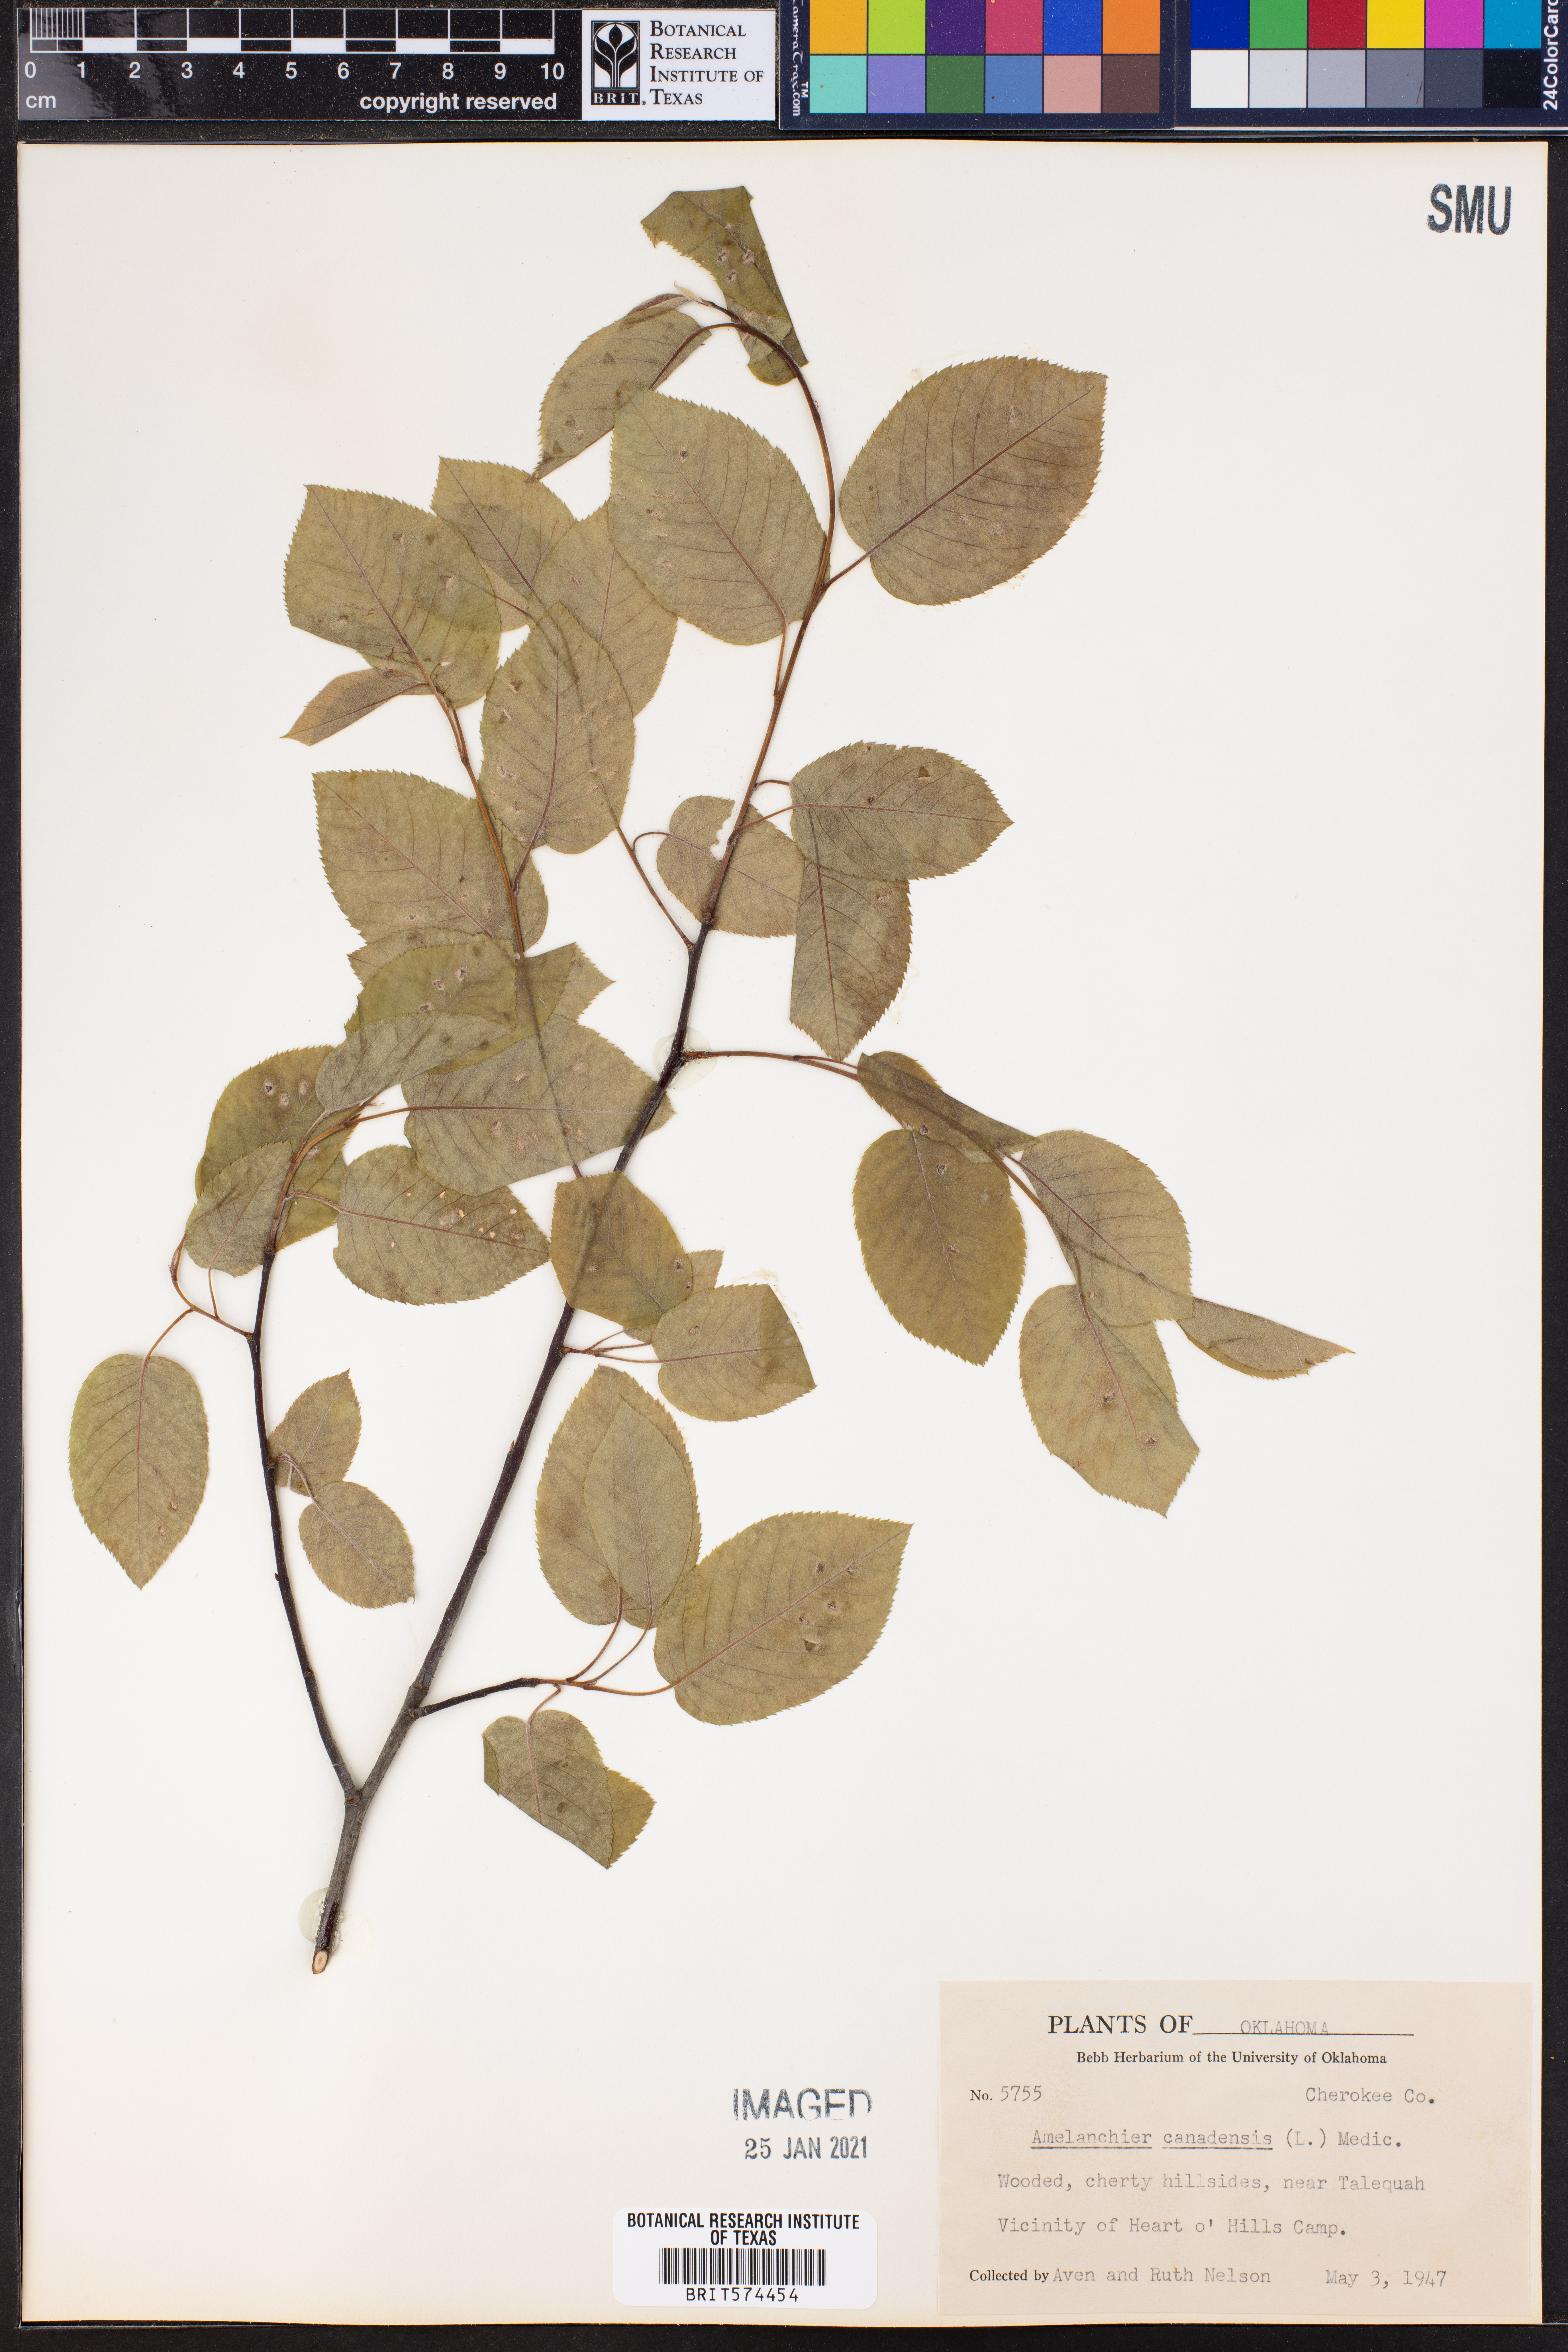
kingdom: Plantae
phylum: Tracheophyta
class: Magnoliopsida
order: Rosales
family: Rosaceae
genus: Amelanchier
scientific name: Amelanchier arborea
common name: Downy serviceberry
